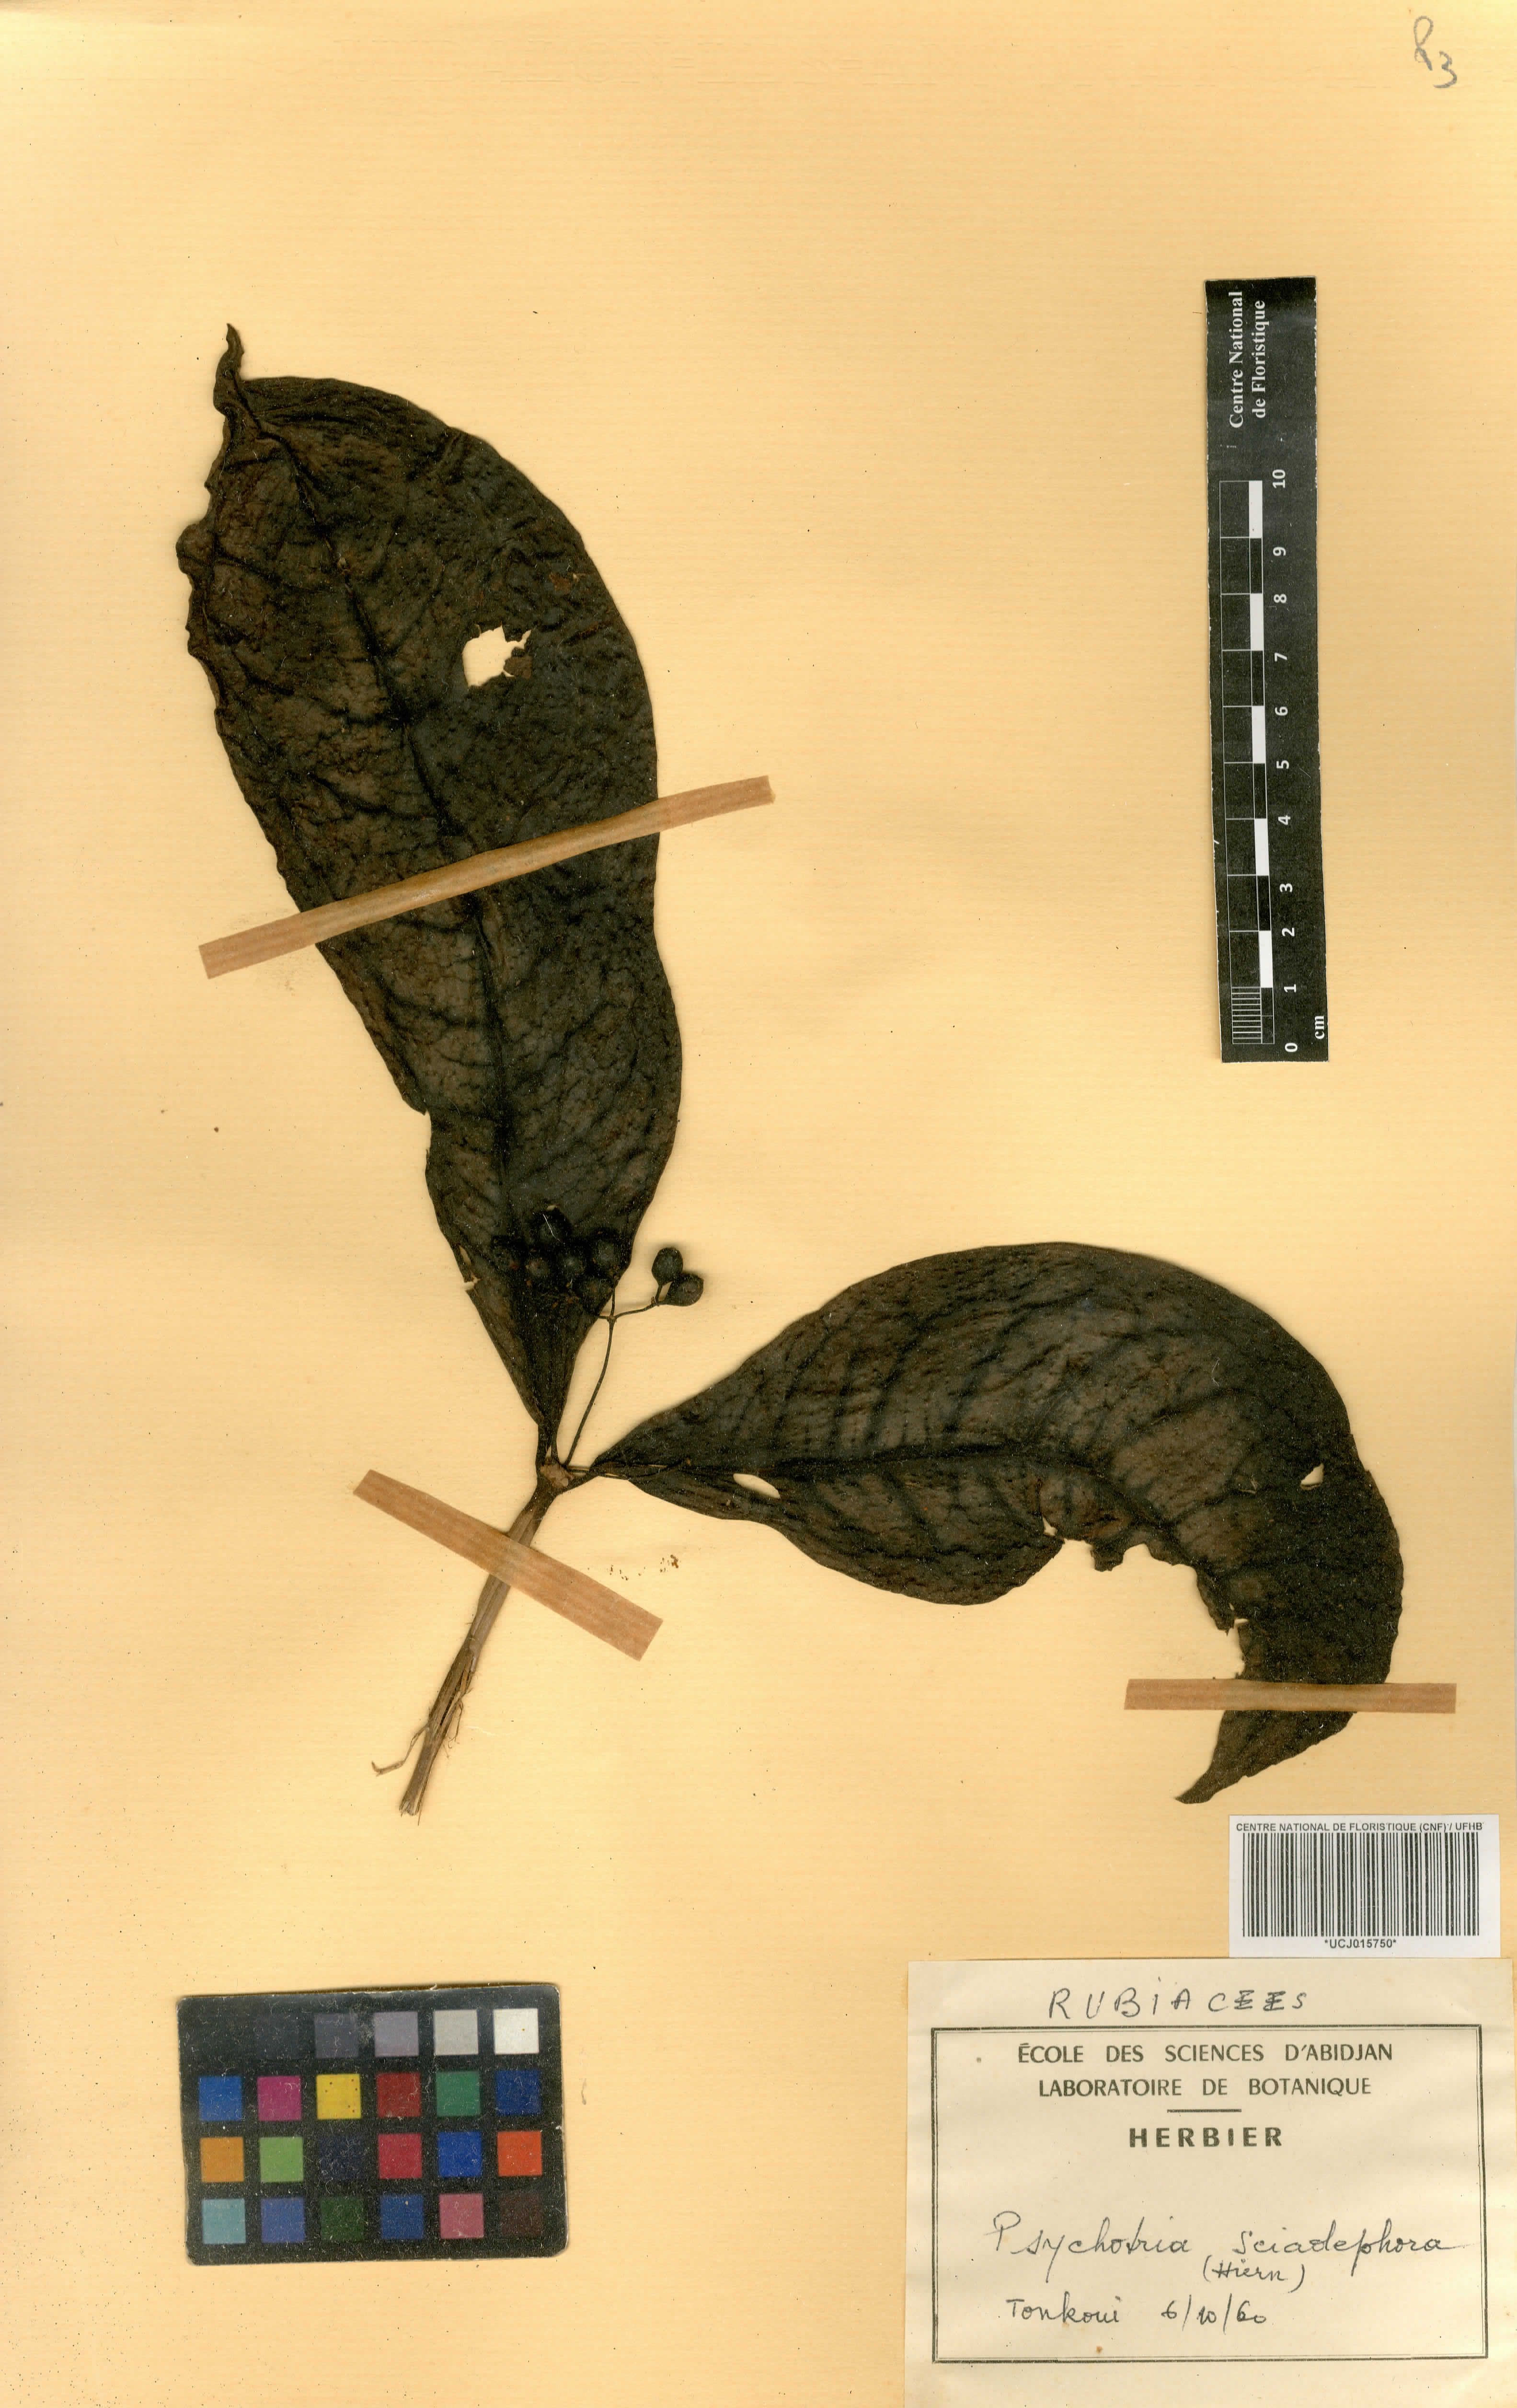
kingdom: Plantae
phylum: Tracheophyta
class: Magnoliopsida
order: Gentianales
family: Rubiaceae
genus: Eumachia
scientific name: Eumachia sciadephora
